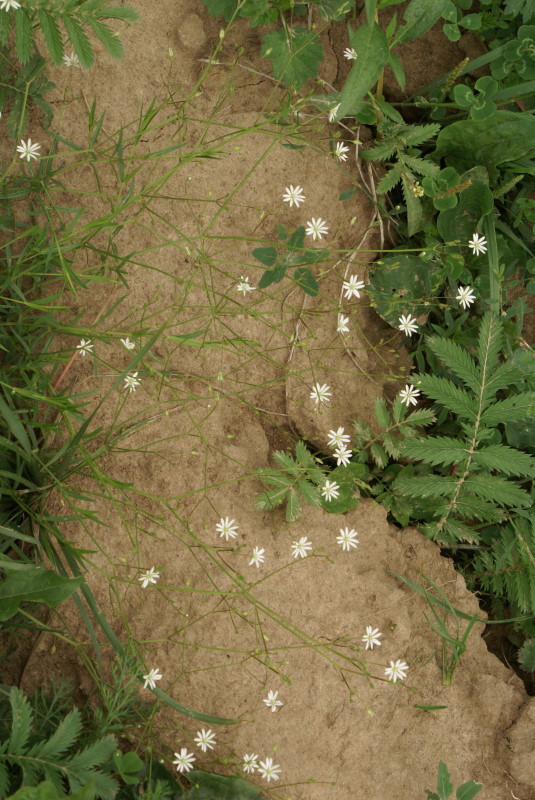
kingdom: Plantae
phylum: Tracheophyta
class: Magnoliopsida
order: Caryophyllales
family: Caryophyllaceae
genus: Stellaria
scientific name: Stellaria graminea
